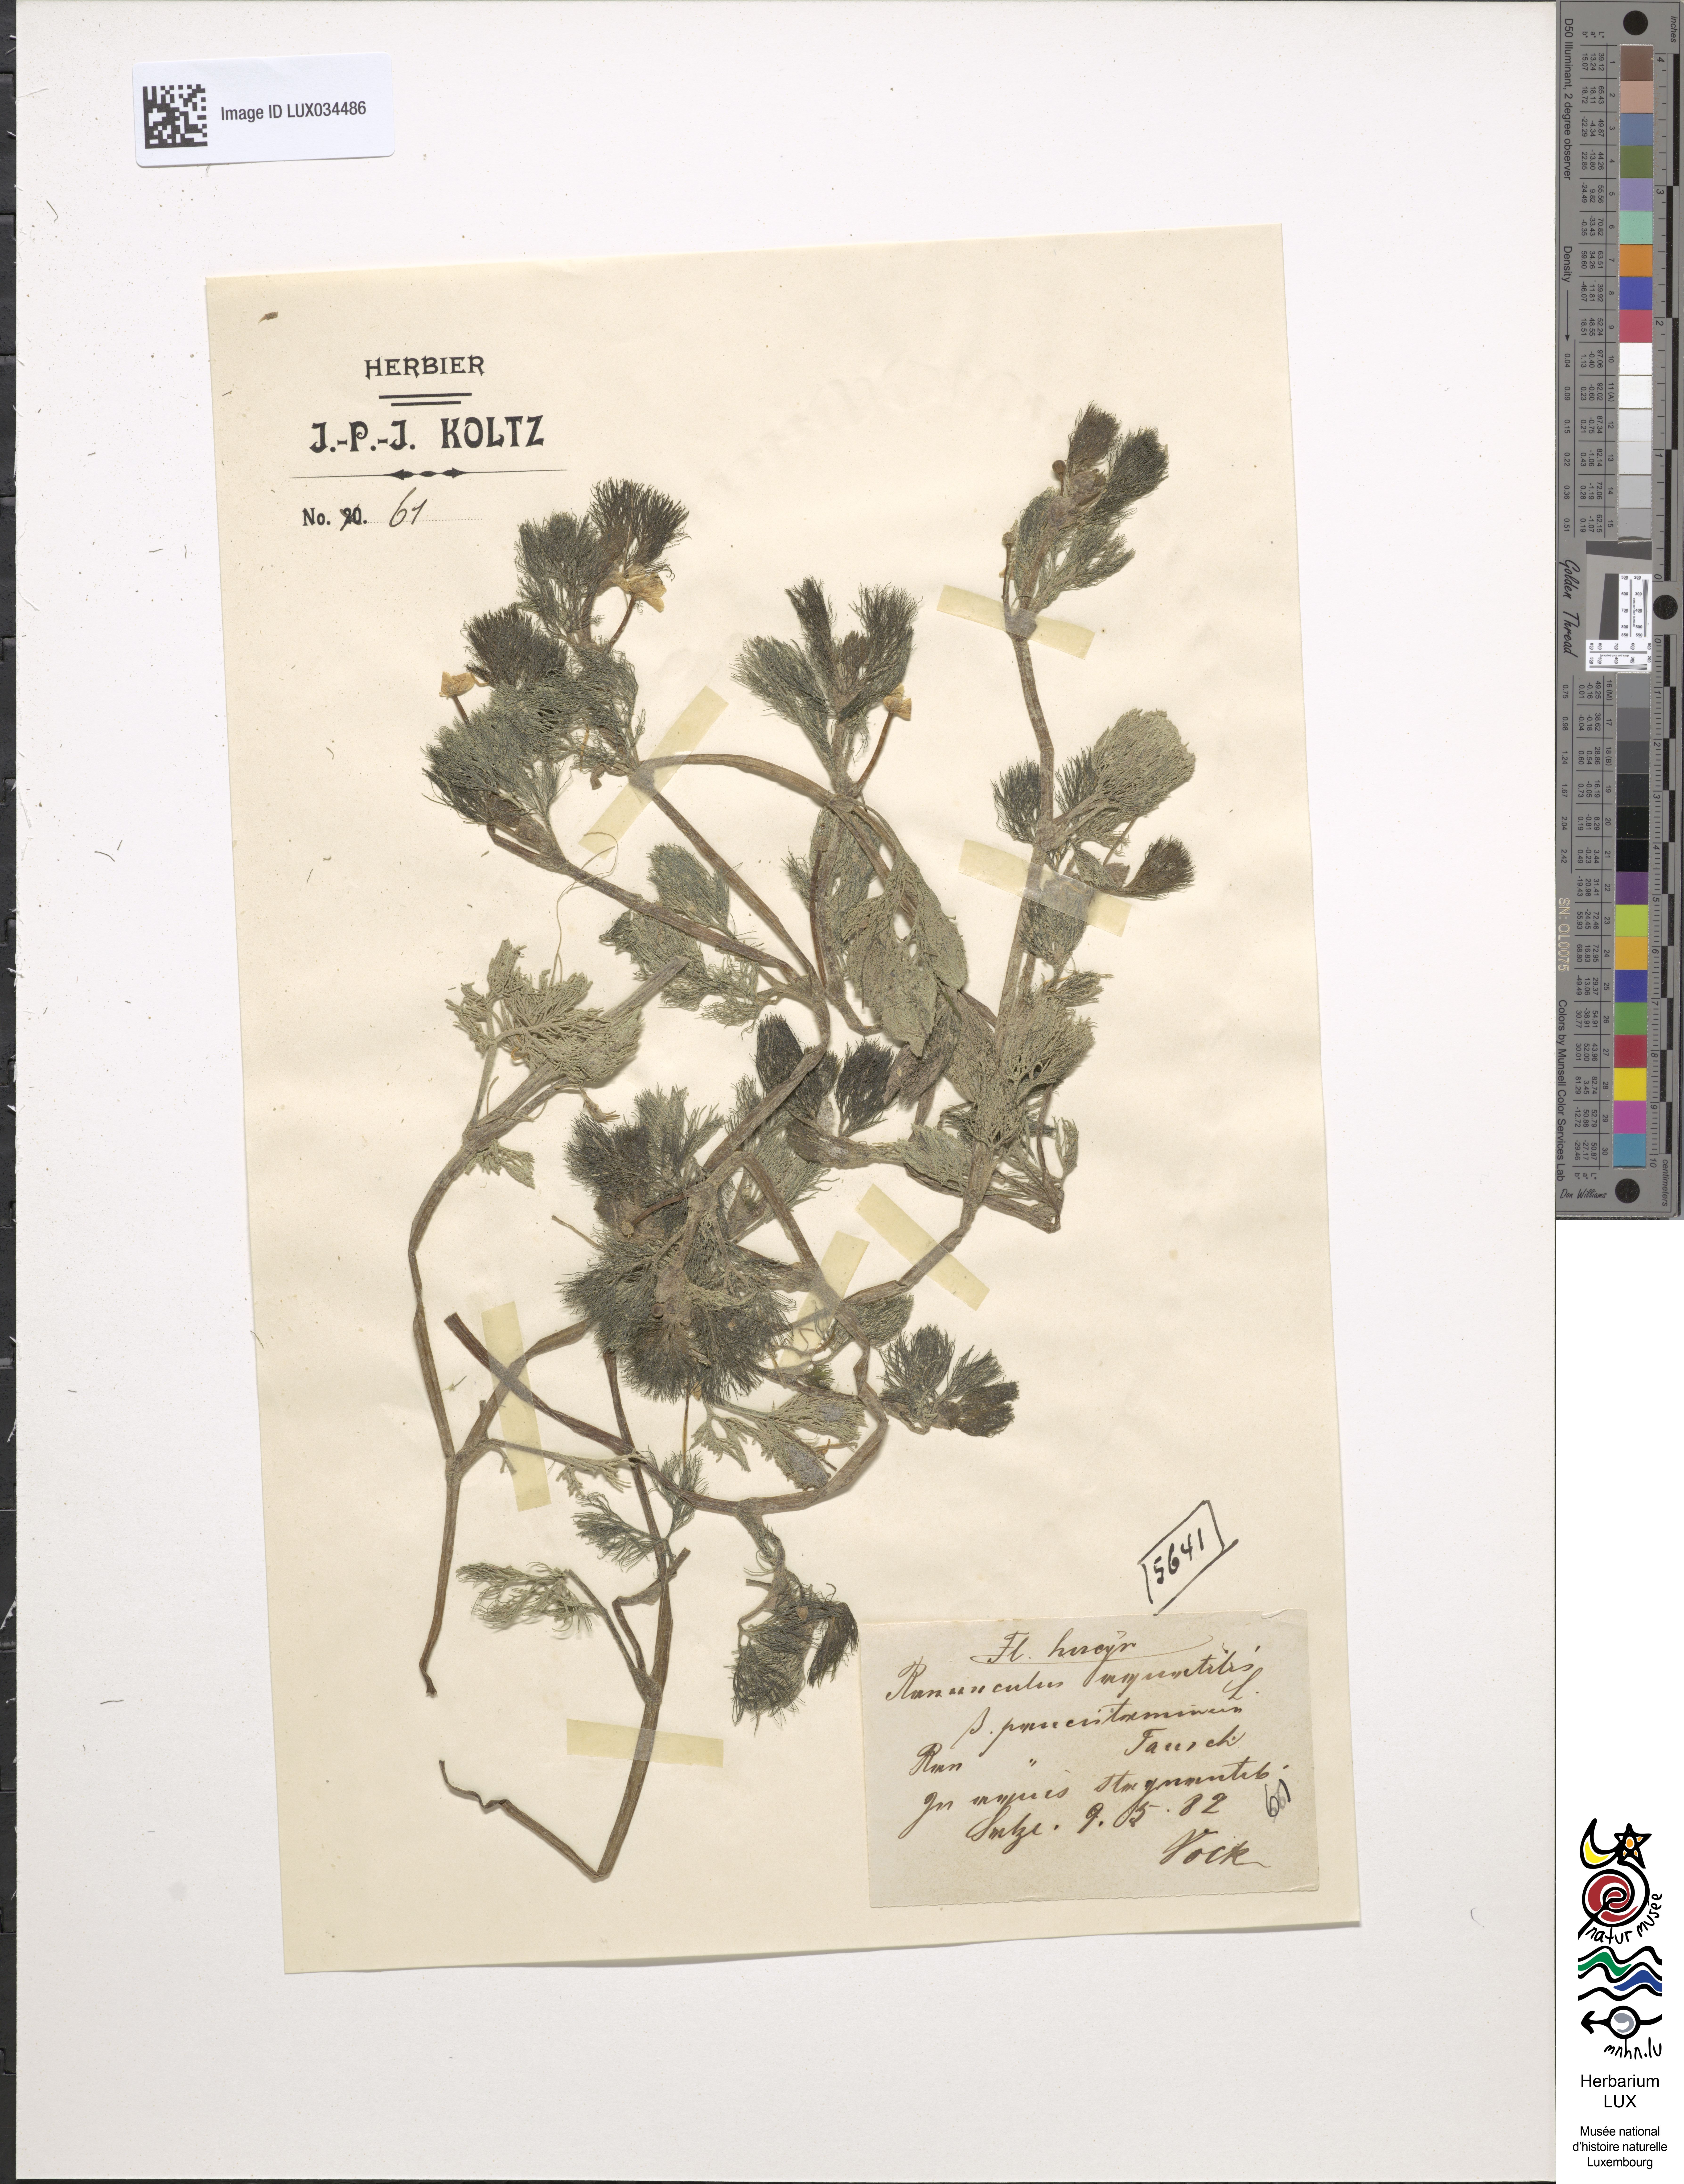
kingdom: Plantae
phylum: Tracheophyta
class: Magnoliopsida
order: Ranunculales
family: Ranunculaceae
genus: Ranunculus
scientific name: Ranunculus circinatus
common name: Fan-leaved water-crowfoot
